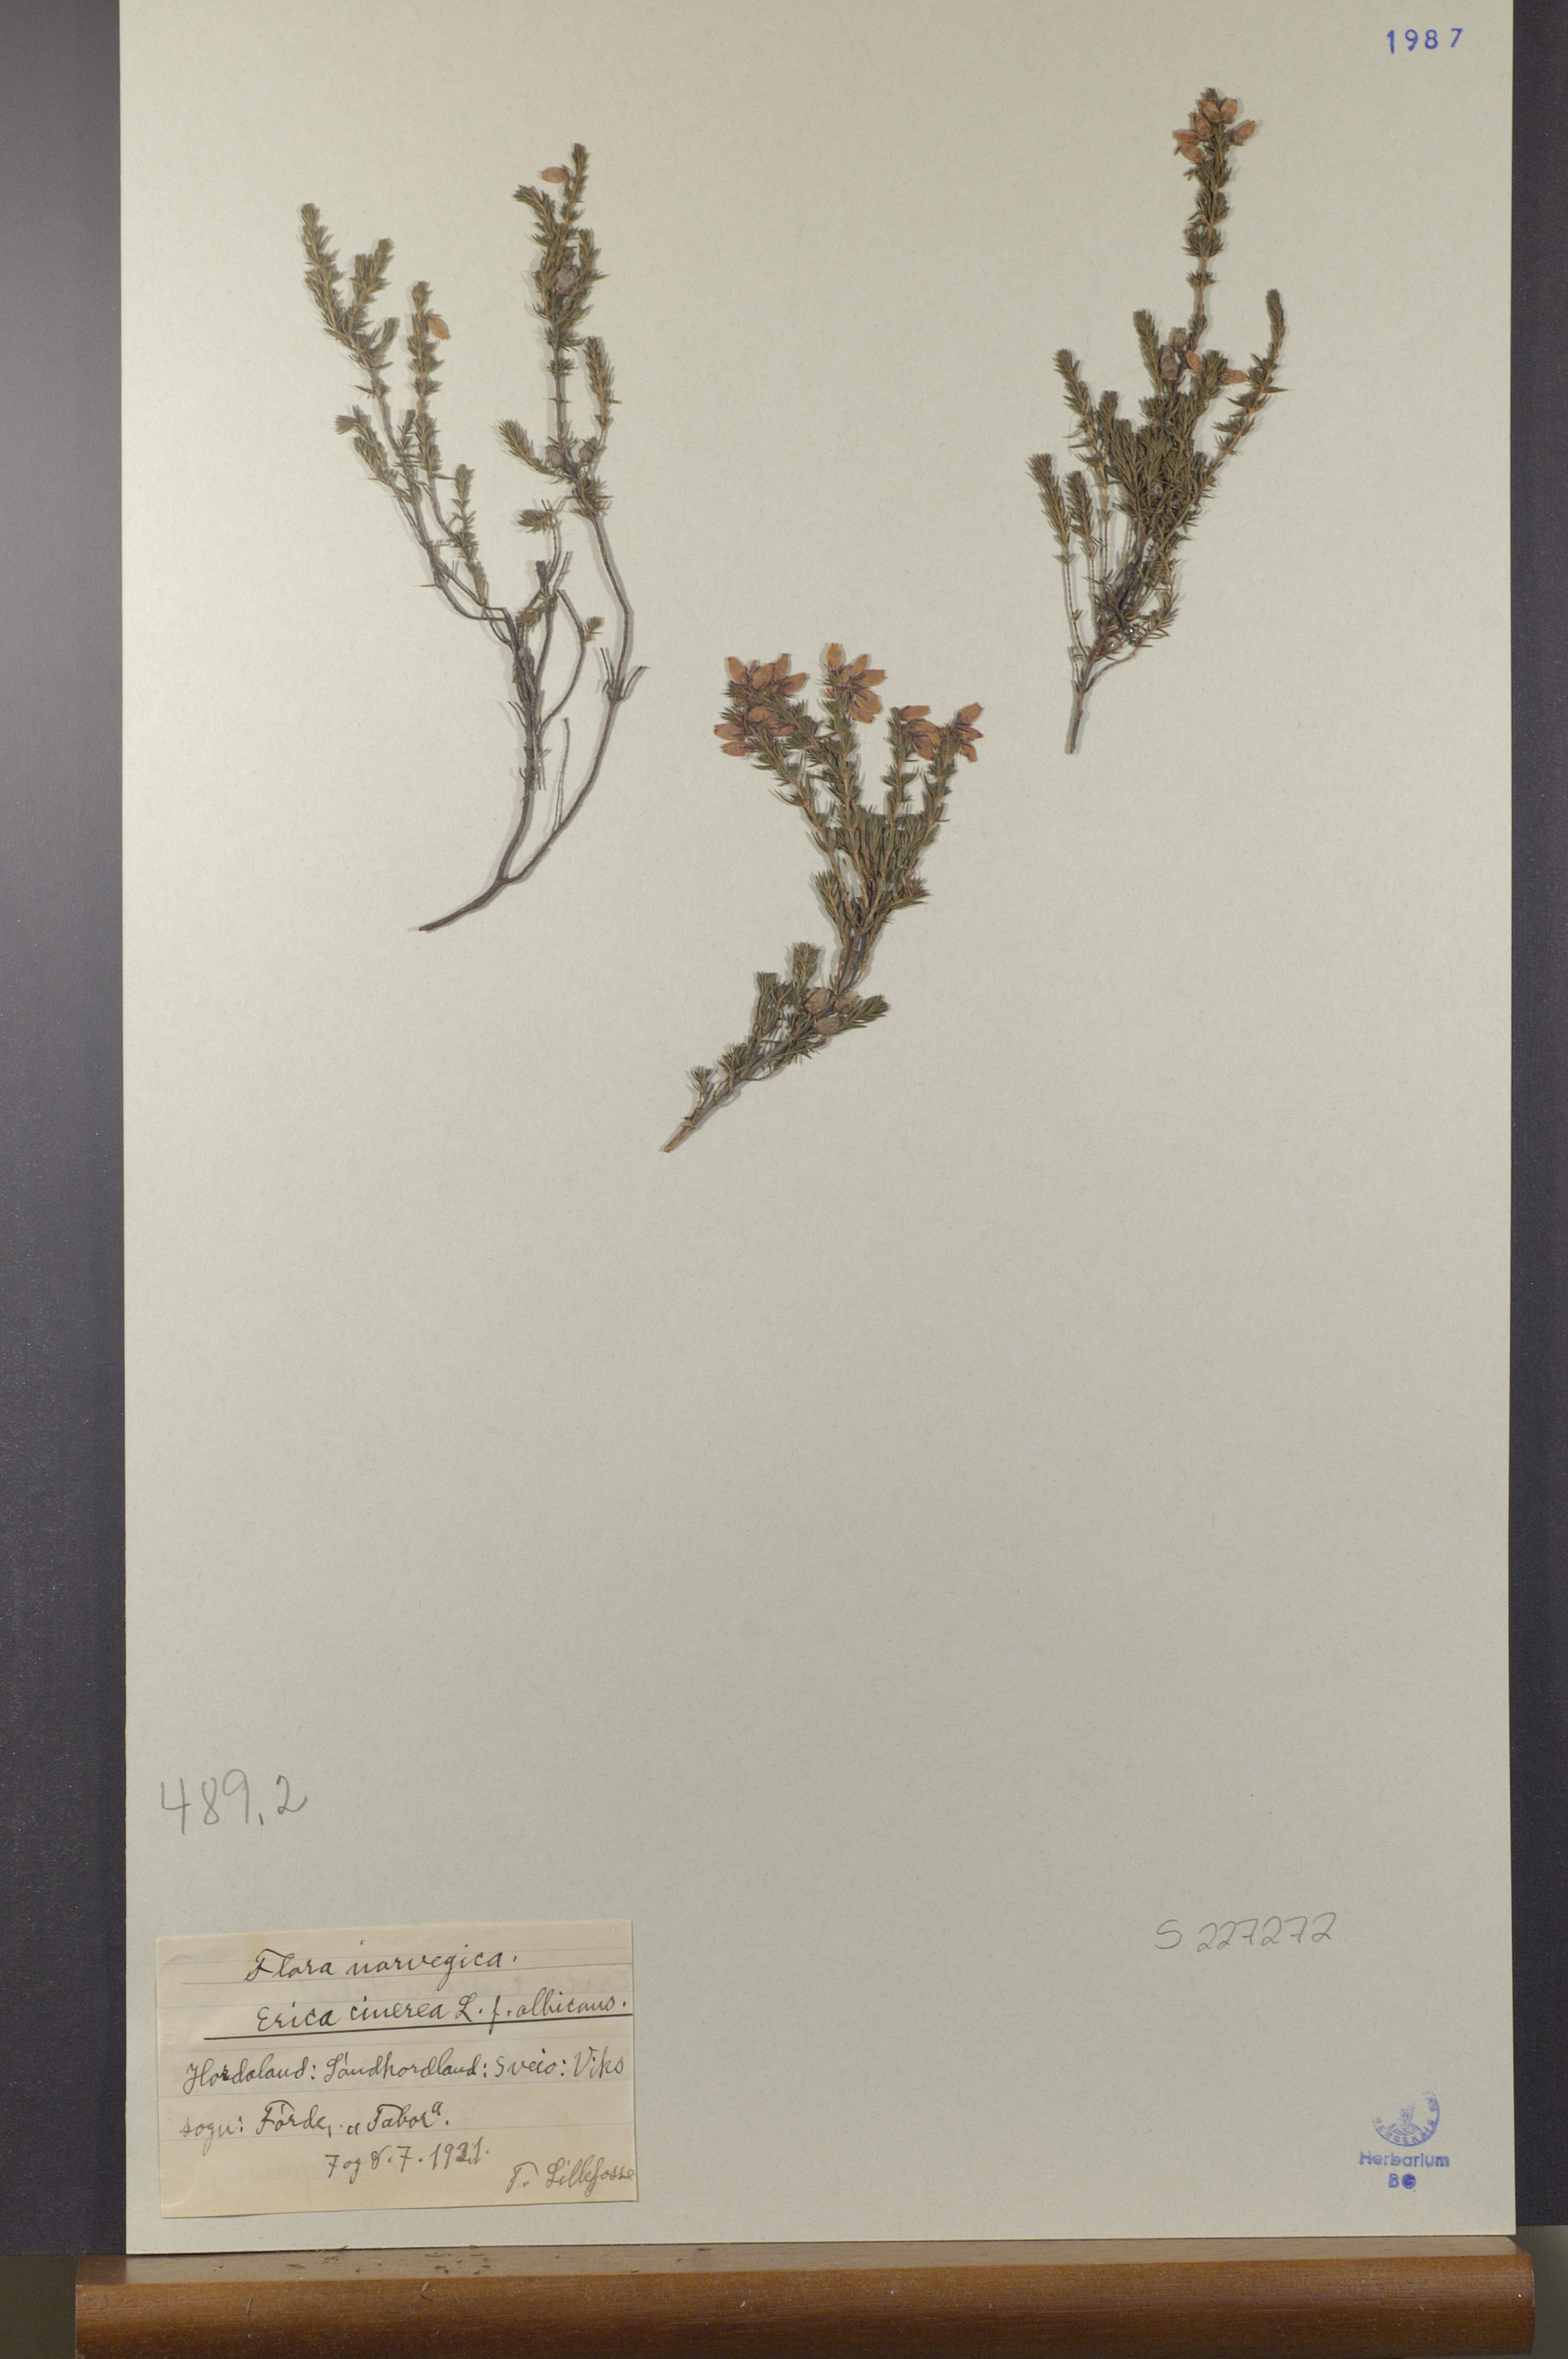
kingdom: Plantae
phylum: Tracheophyta
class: Magnoliopsida
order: Ericales
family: Ericaceae
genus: Erica
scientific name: Erica cinerea
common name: Bell heather
